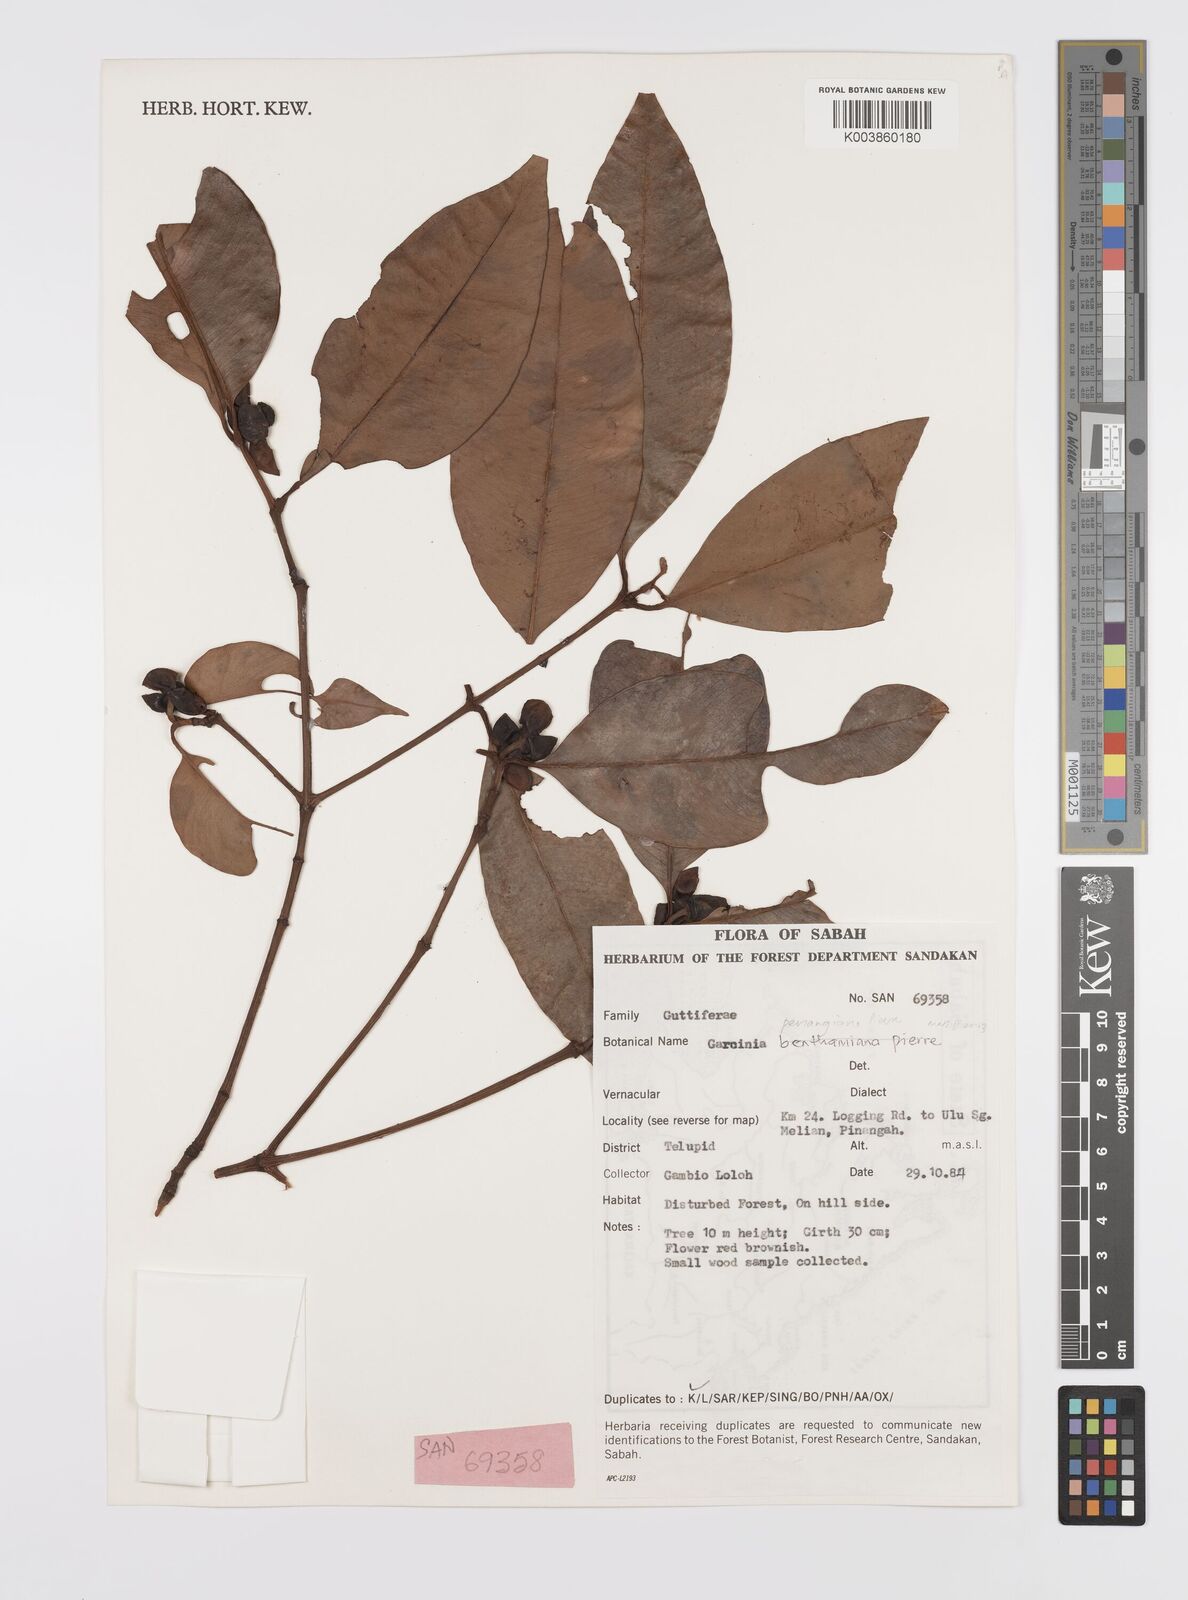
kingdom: Plantae
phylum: Tracheophyta
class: Magnoliopsida
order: Malpighiales
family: Clusiaceae
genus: Garcinia
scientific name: Garcinia penangiana
